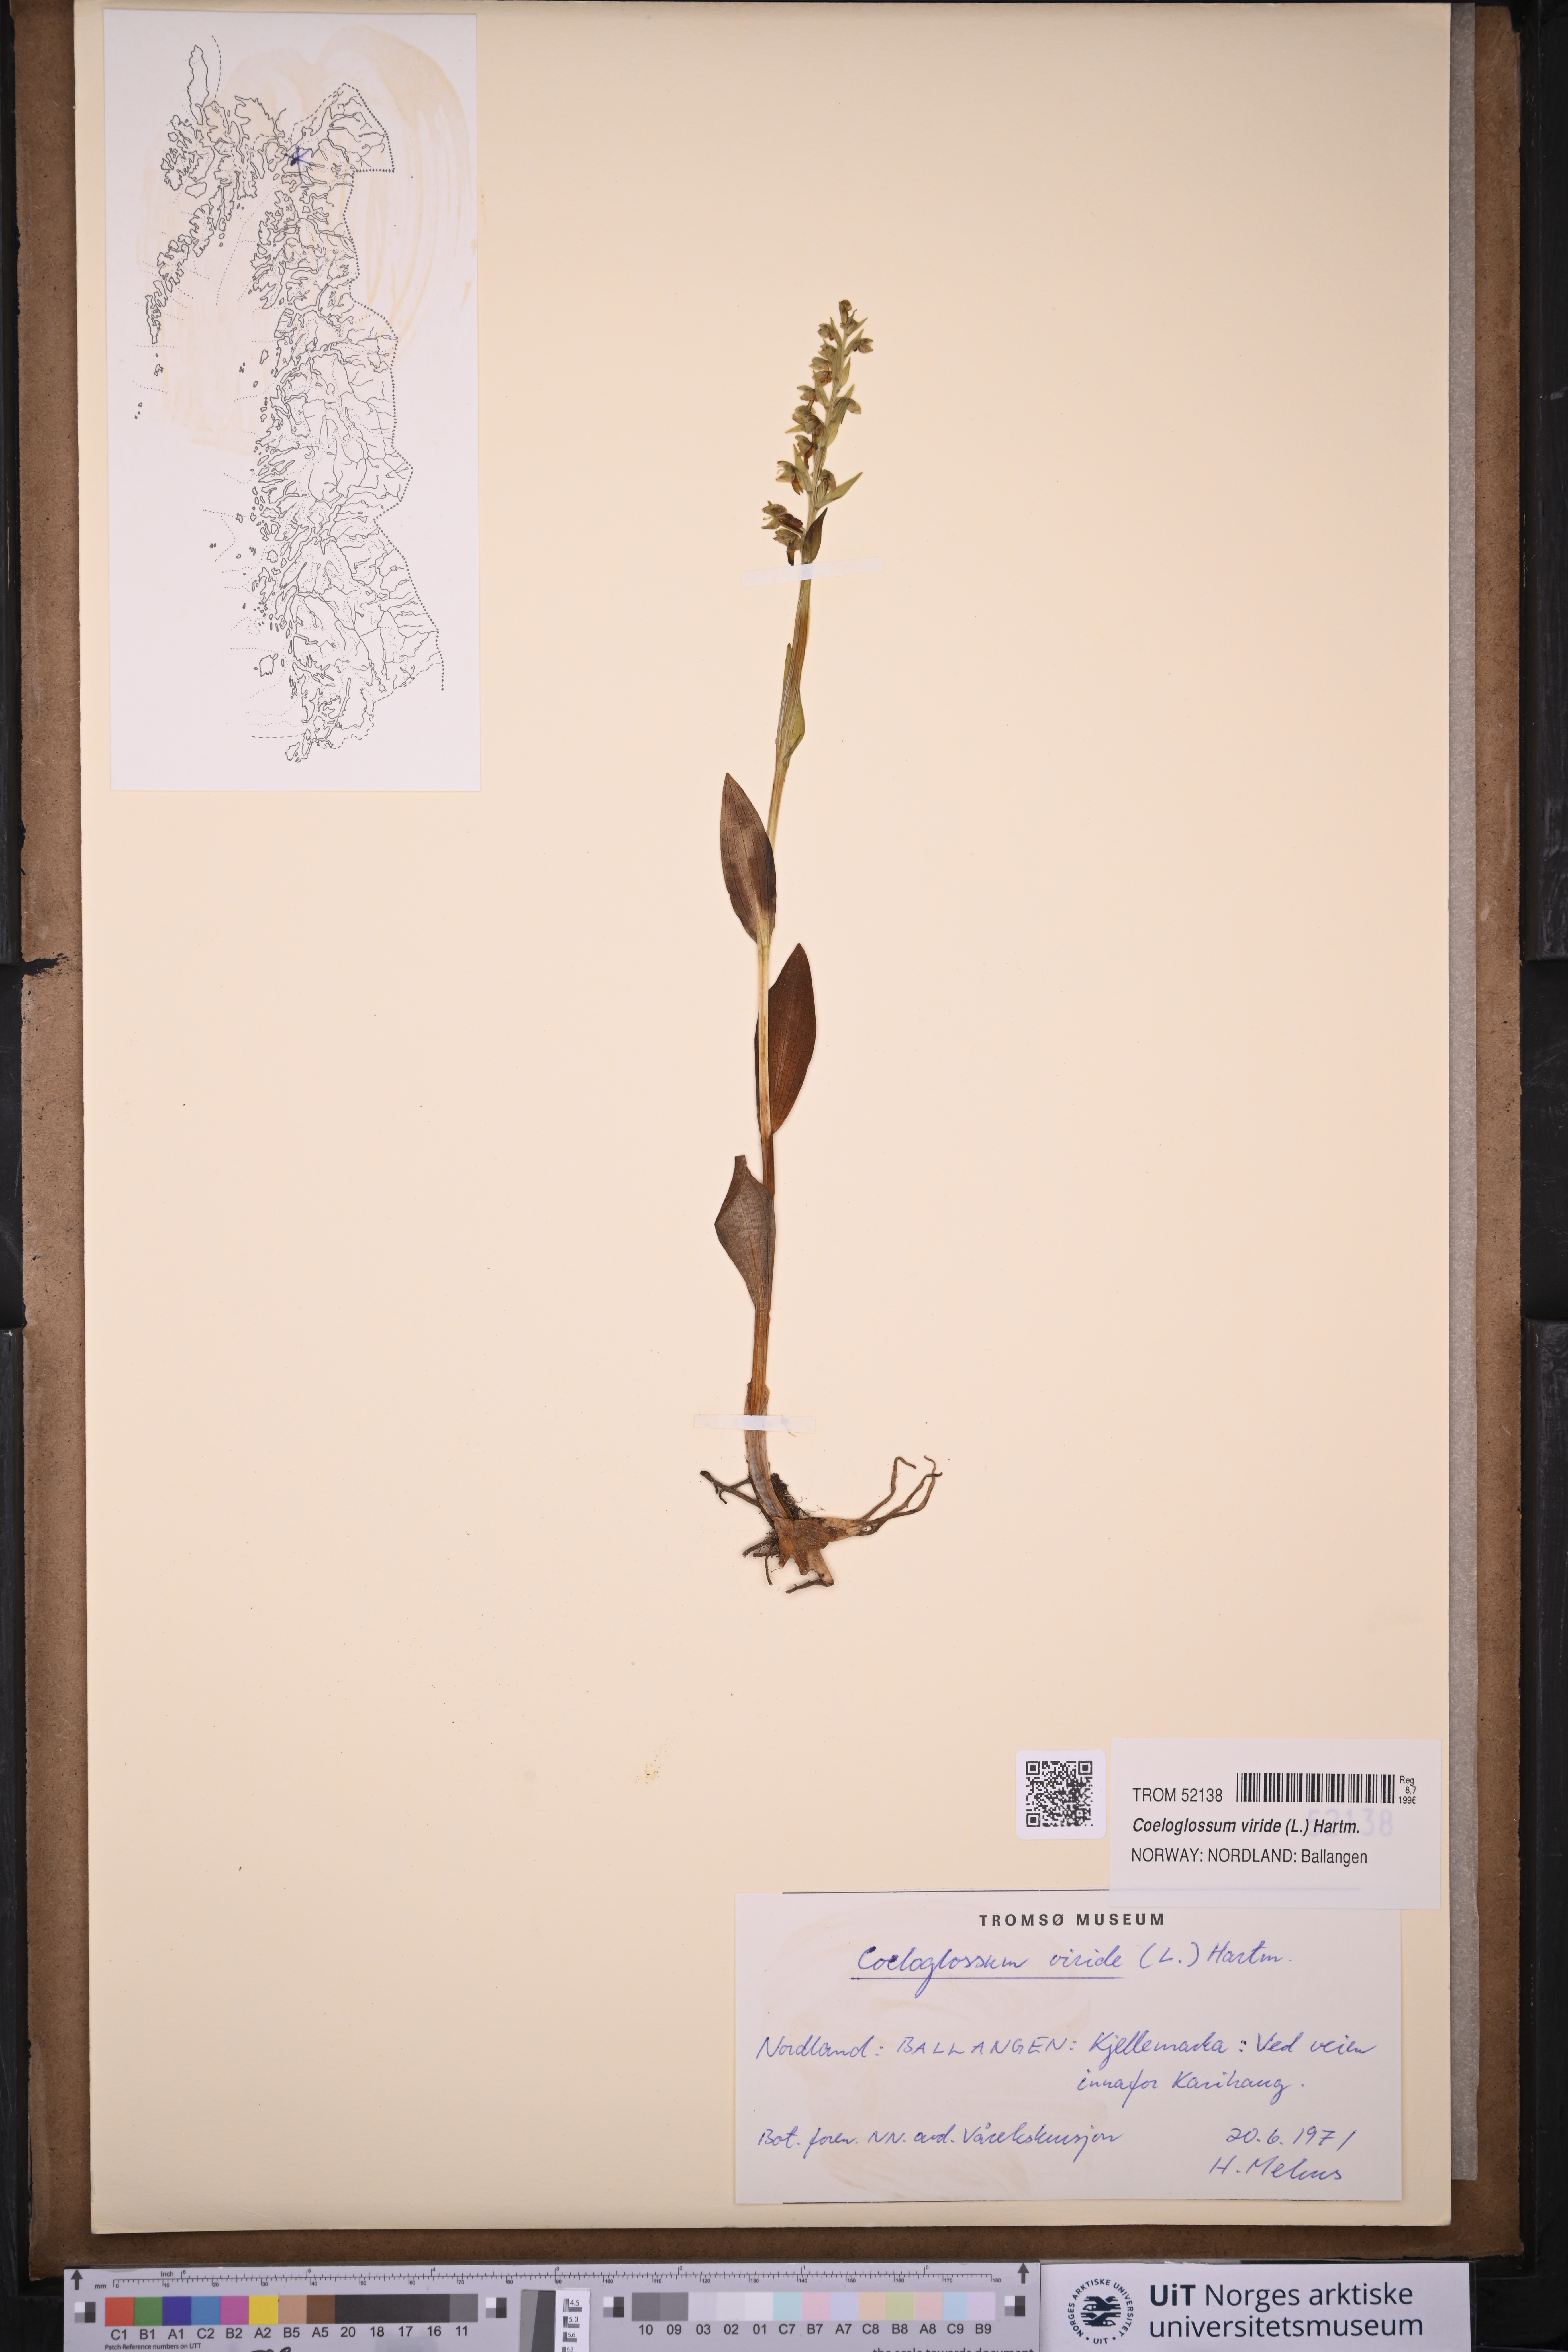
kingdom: Plantae
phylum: Tracheophyta
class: Liliopsida
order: Asparagales
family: Orchidaceae
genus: Dactylorhiza
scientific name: Dactylorhiza viridis
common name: Longbract frog orchid
